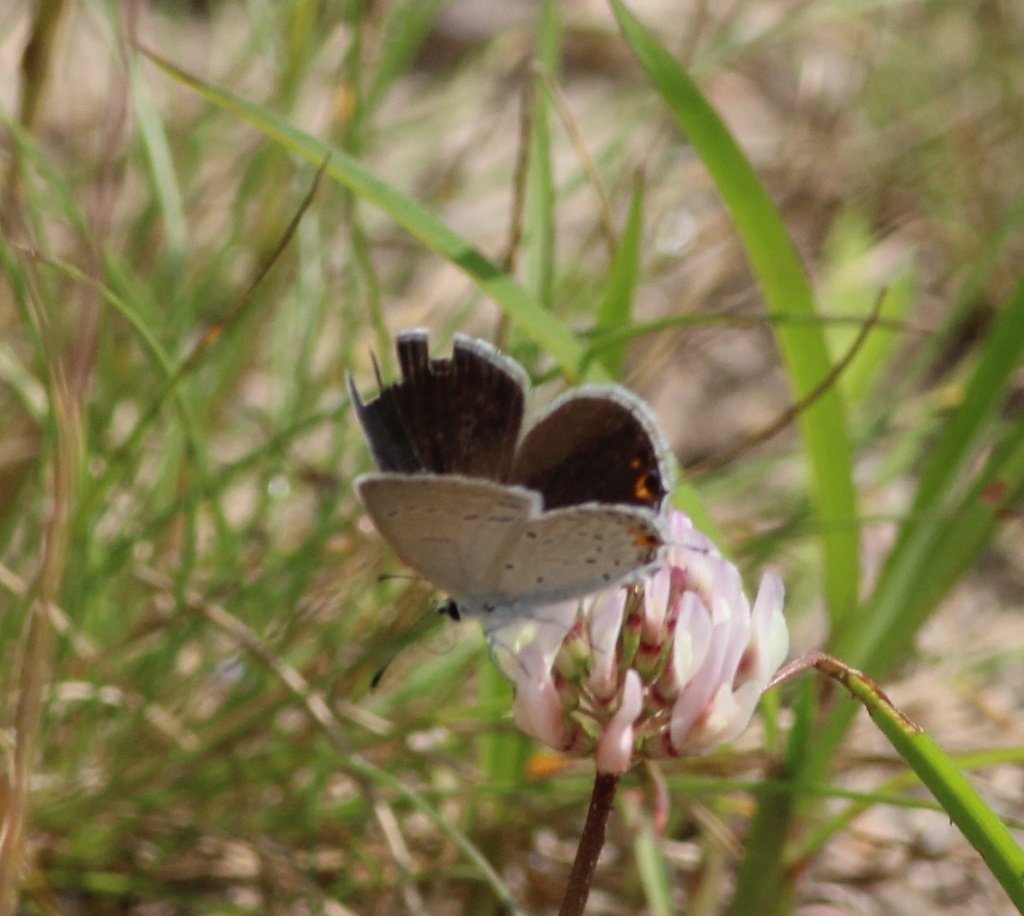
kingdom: Animalia
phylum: Arthropoda
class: Insecta
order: Lepidoptera
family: Lycaenidae
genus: Elkalyce
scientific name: Elkalyce comyntas
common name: Eastern Tailed-Blue
